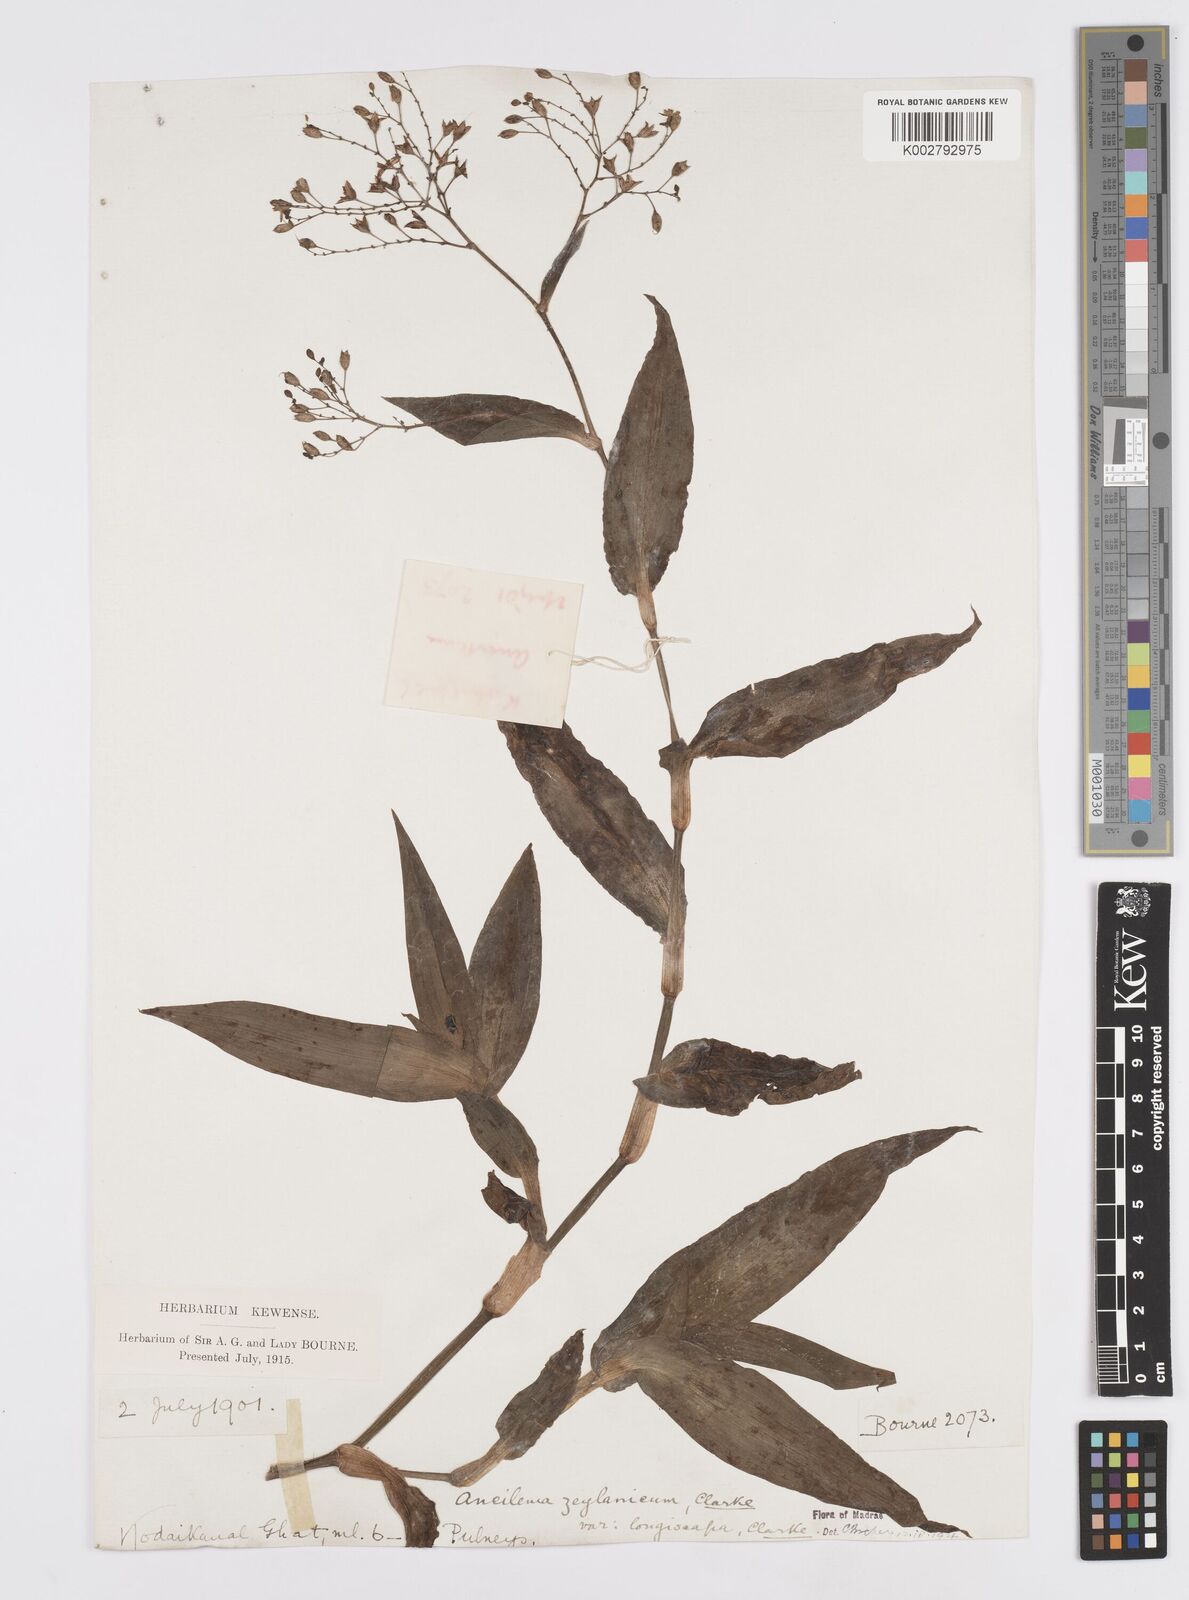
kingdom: Plantae
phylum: Tracheophyta
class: Liliopsida
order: Commelinales
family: Commelinaceae
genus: Murdannia
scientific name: Murdannia zeylanica
